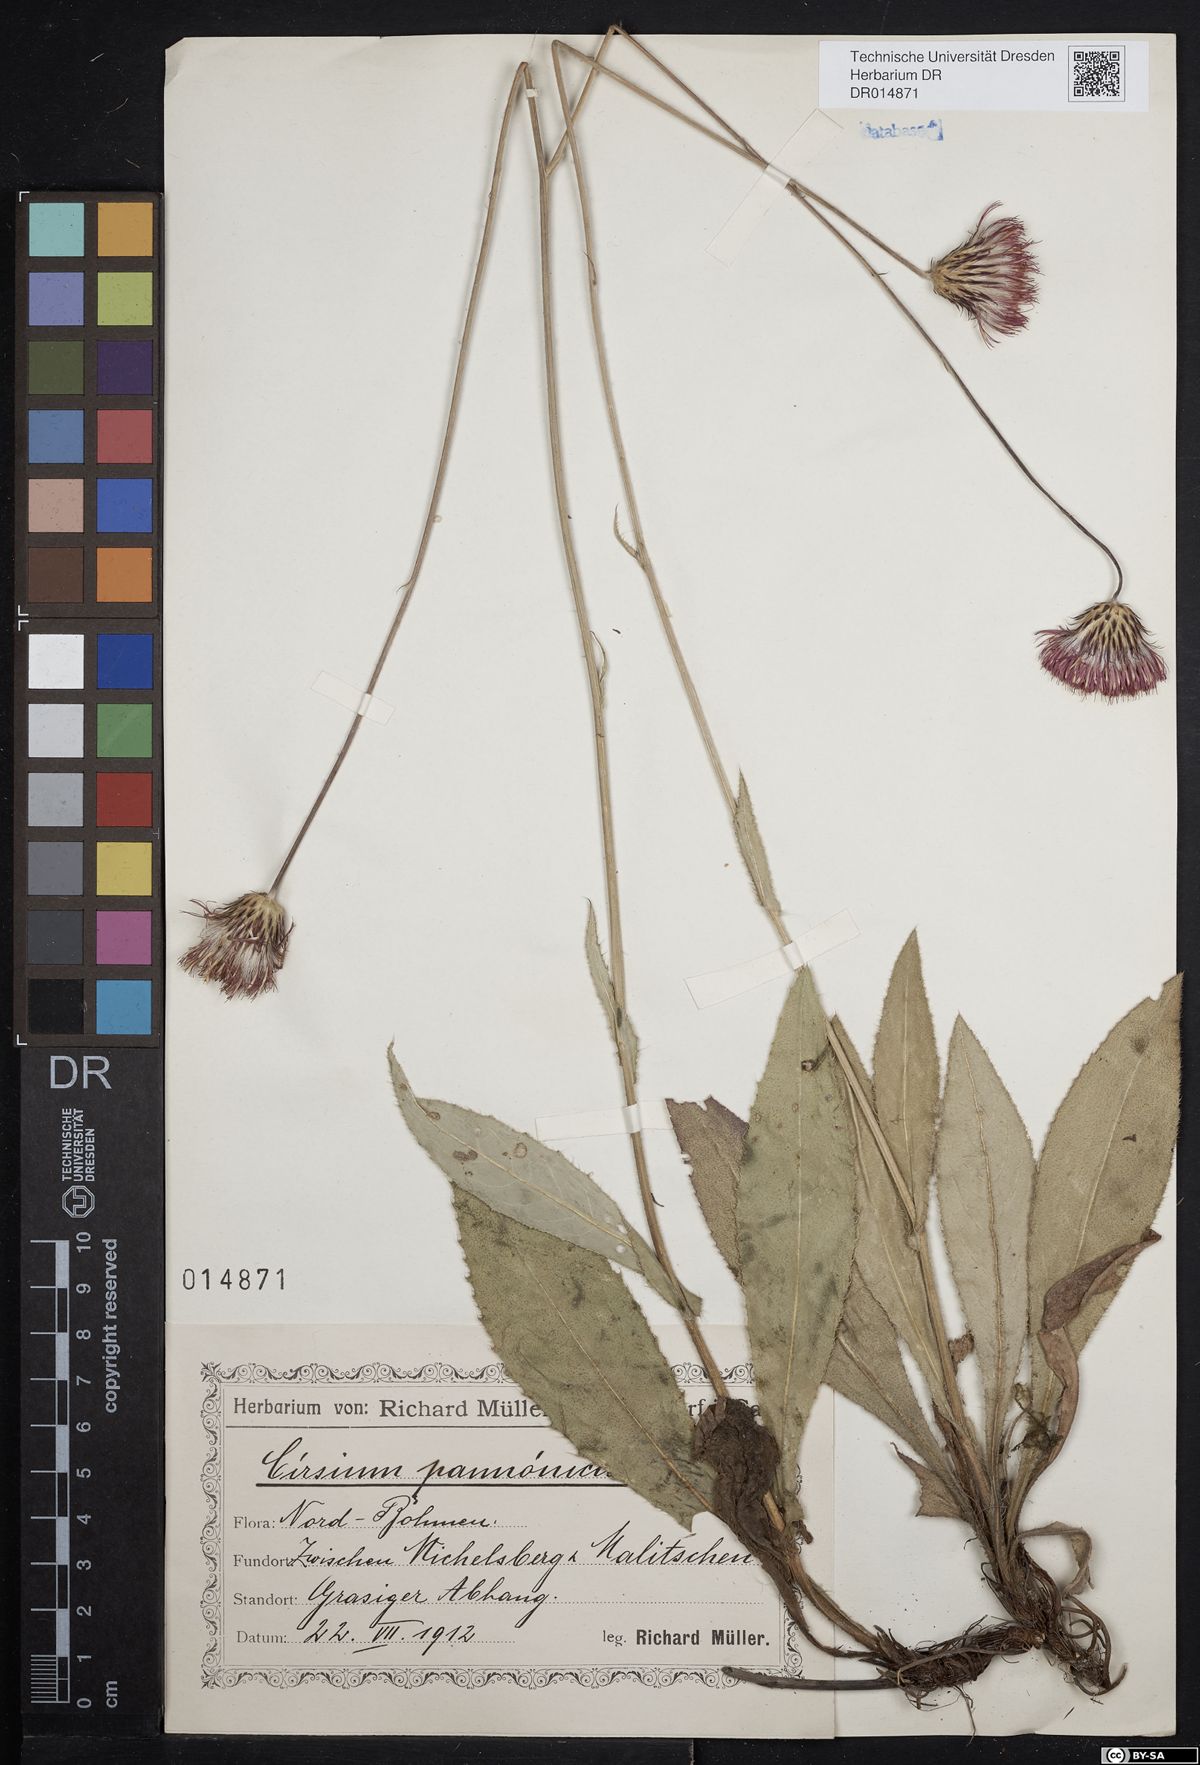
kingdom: Plantae
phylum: Tracheophyta
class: Magnoliopsida
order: Asterales
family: Asteraceae
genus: Cirsium
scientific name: Cirsium pannonicum
